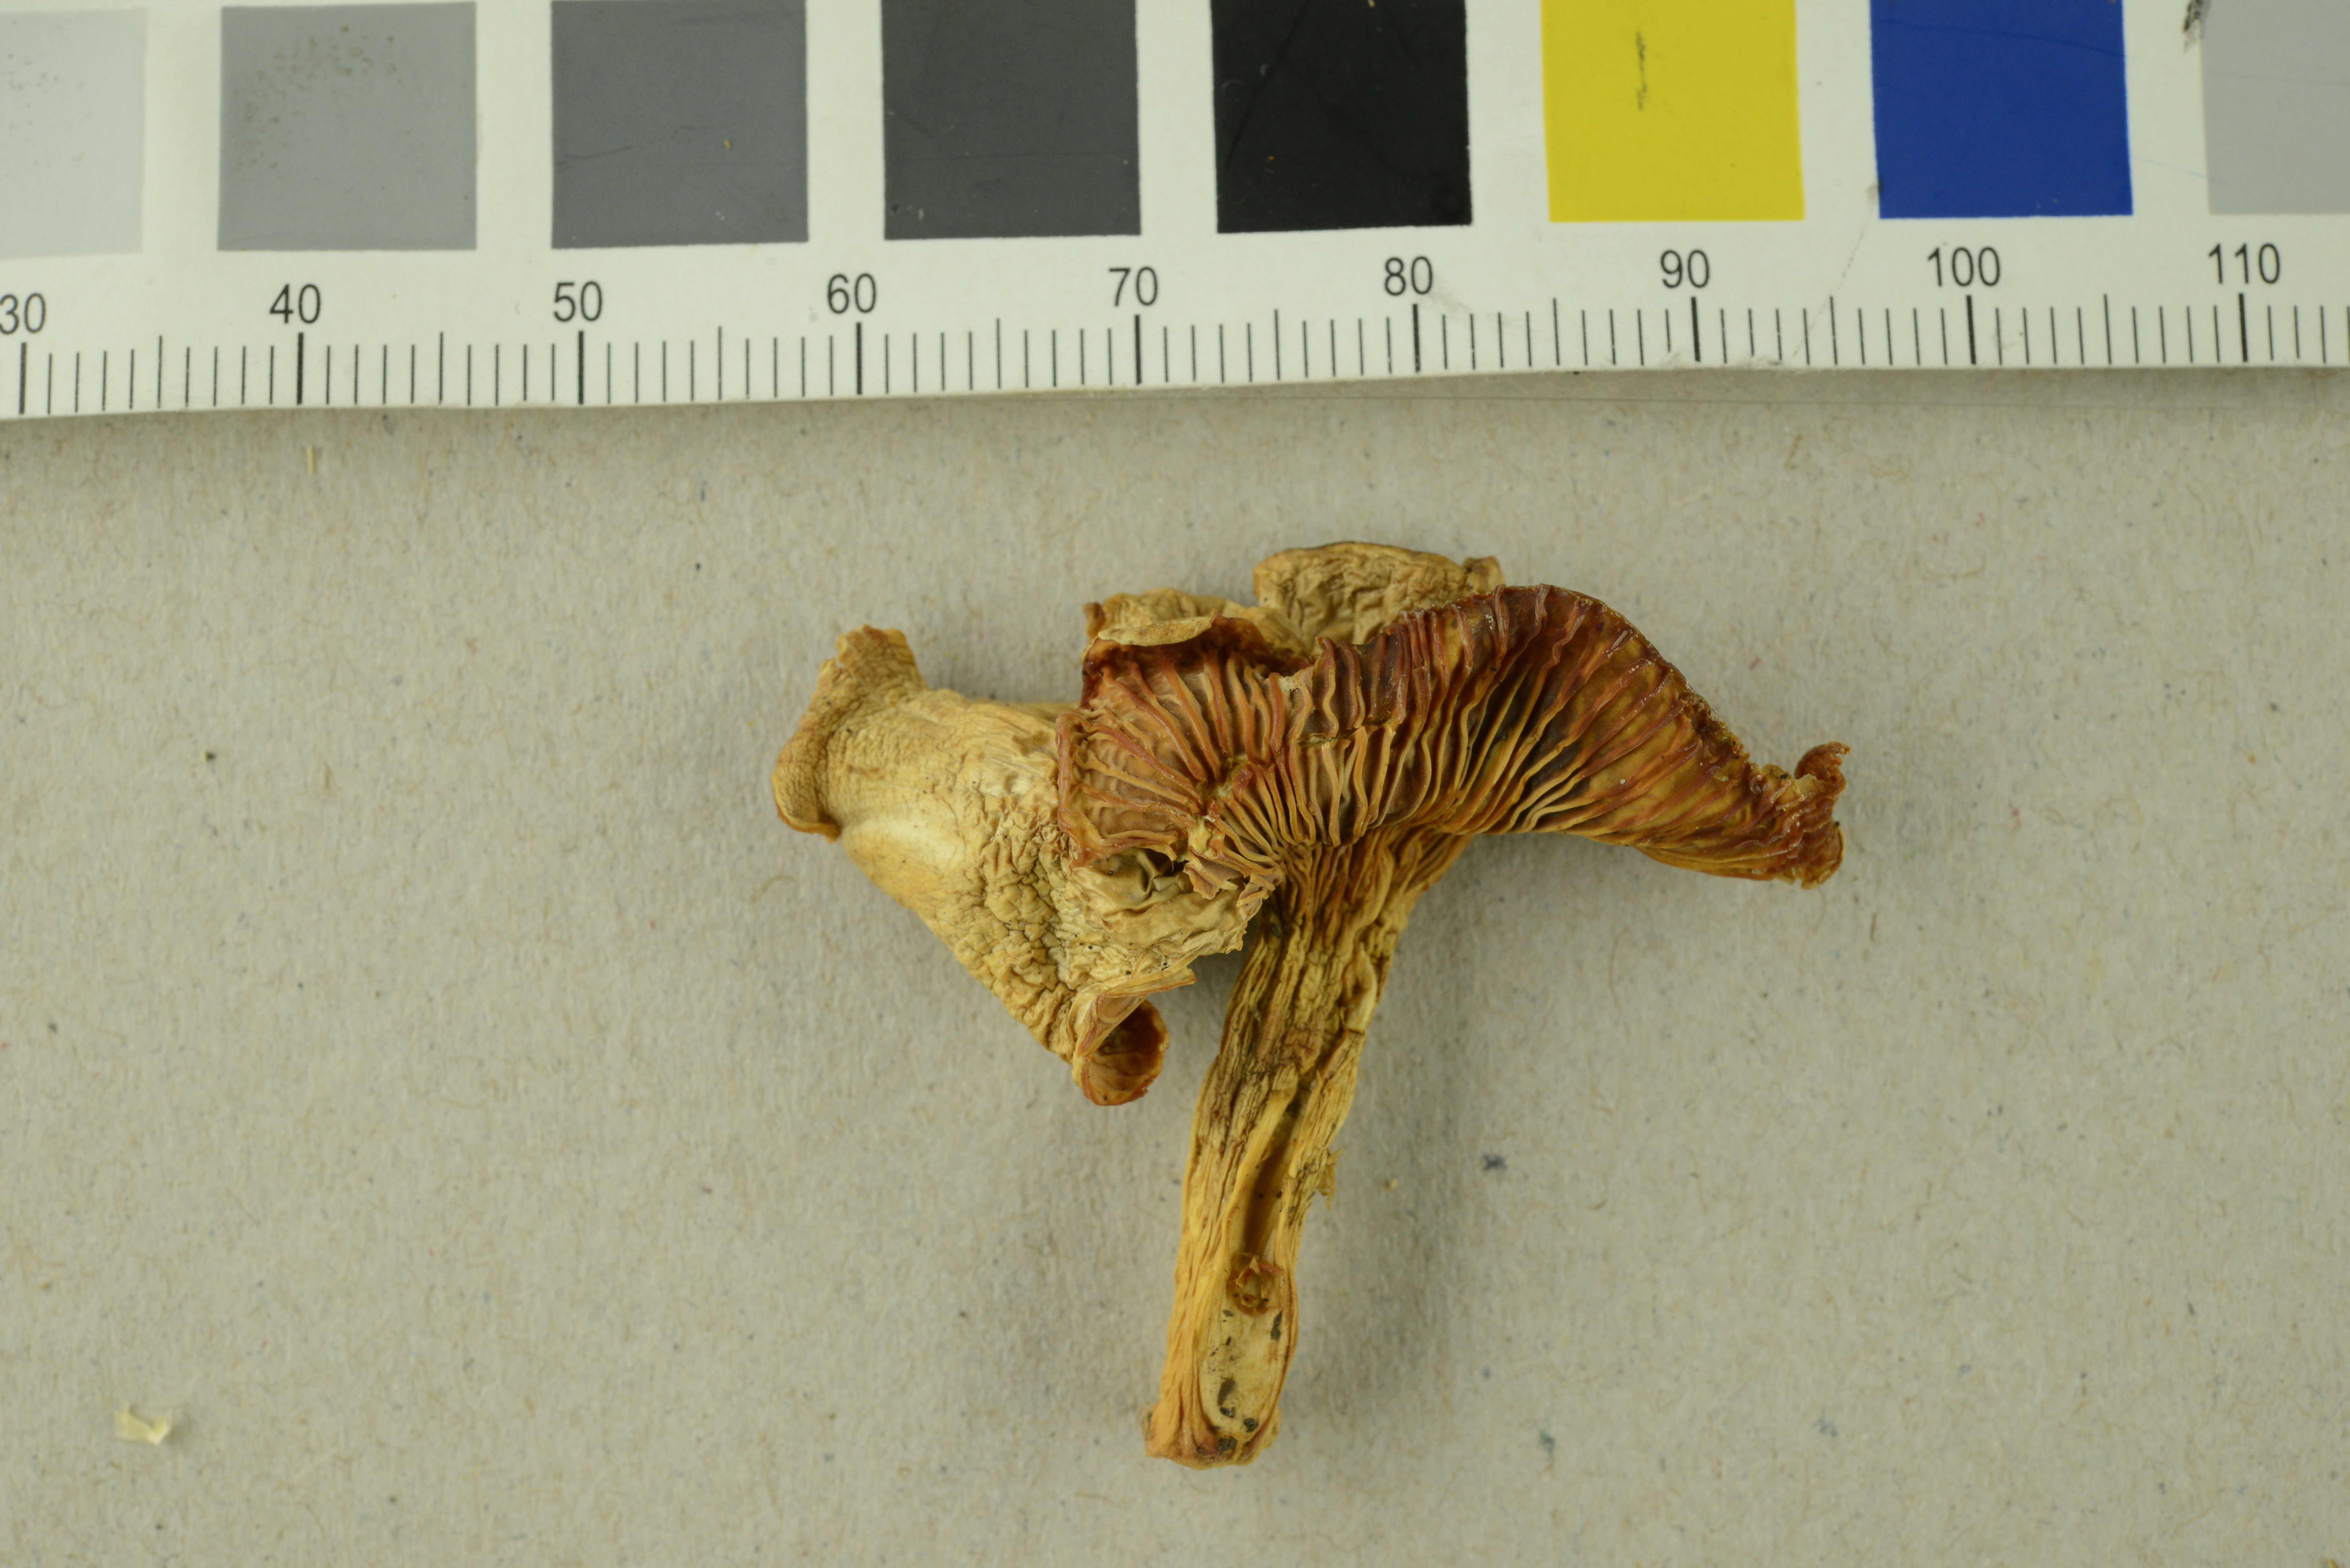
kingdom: Fungi
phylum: Basidiomycota
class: Agaricomycetes
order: Cantharellales
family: Hydnaceae
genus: Cantharellus
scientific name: Cantharellus friesii
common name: Orange chanterelle
